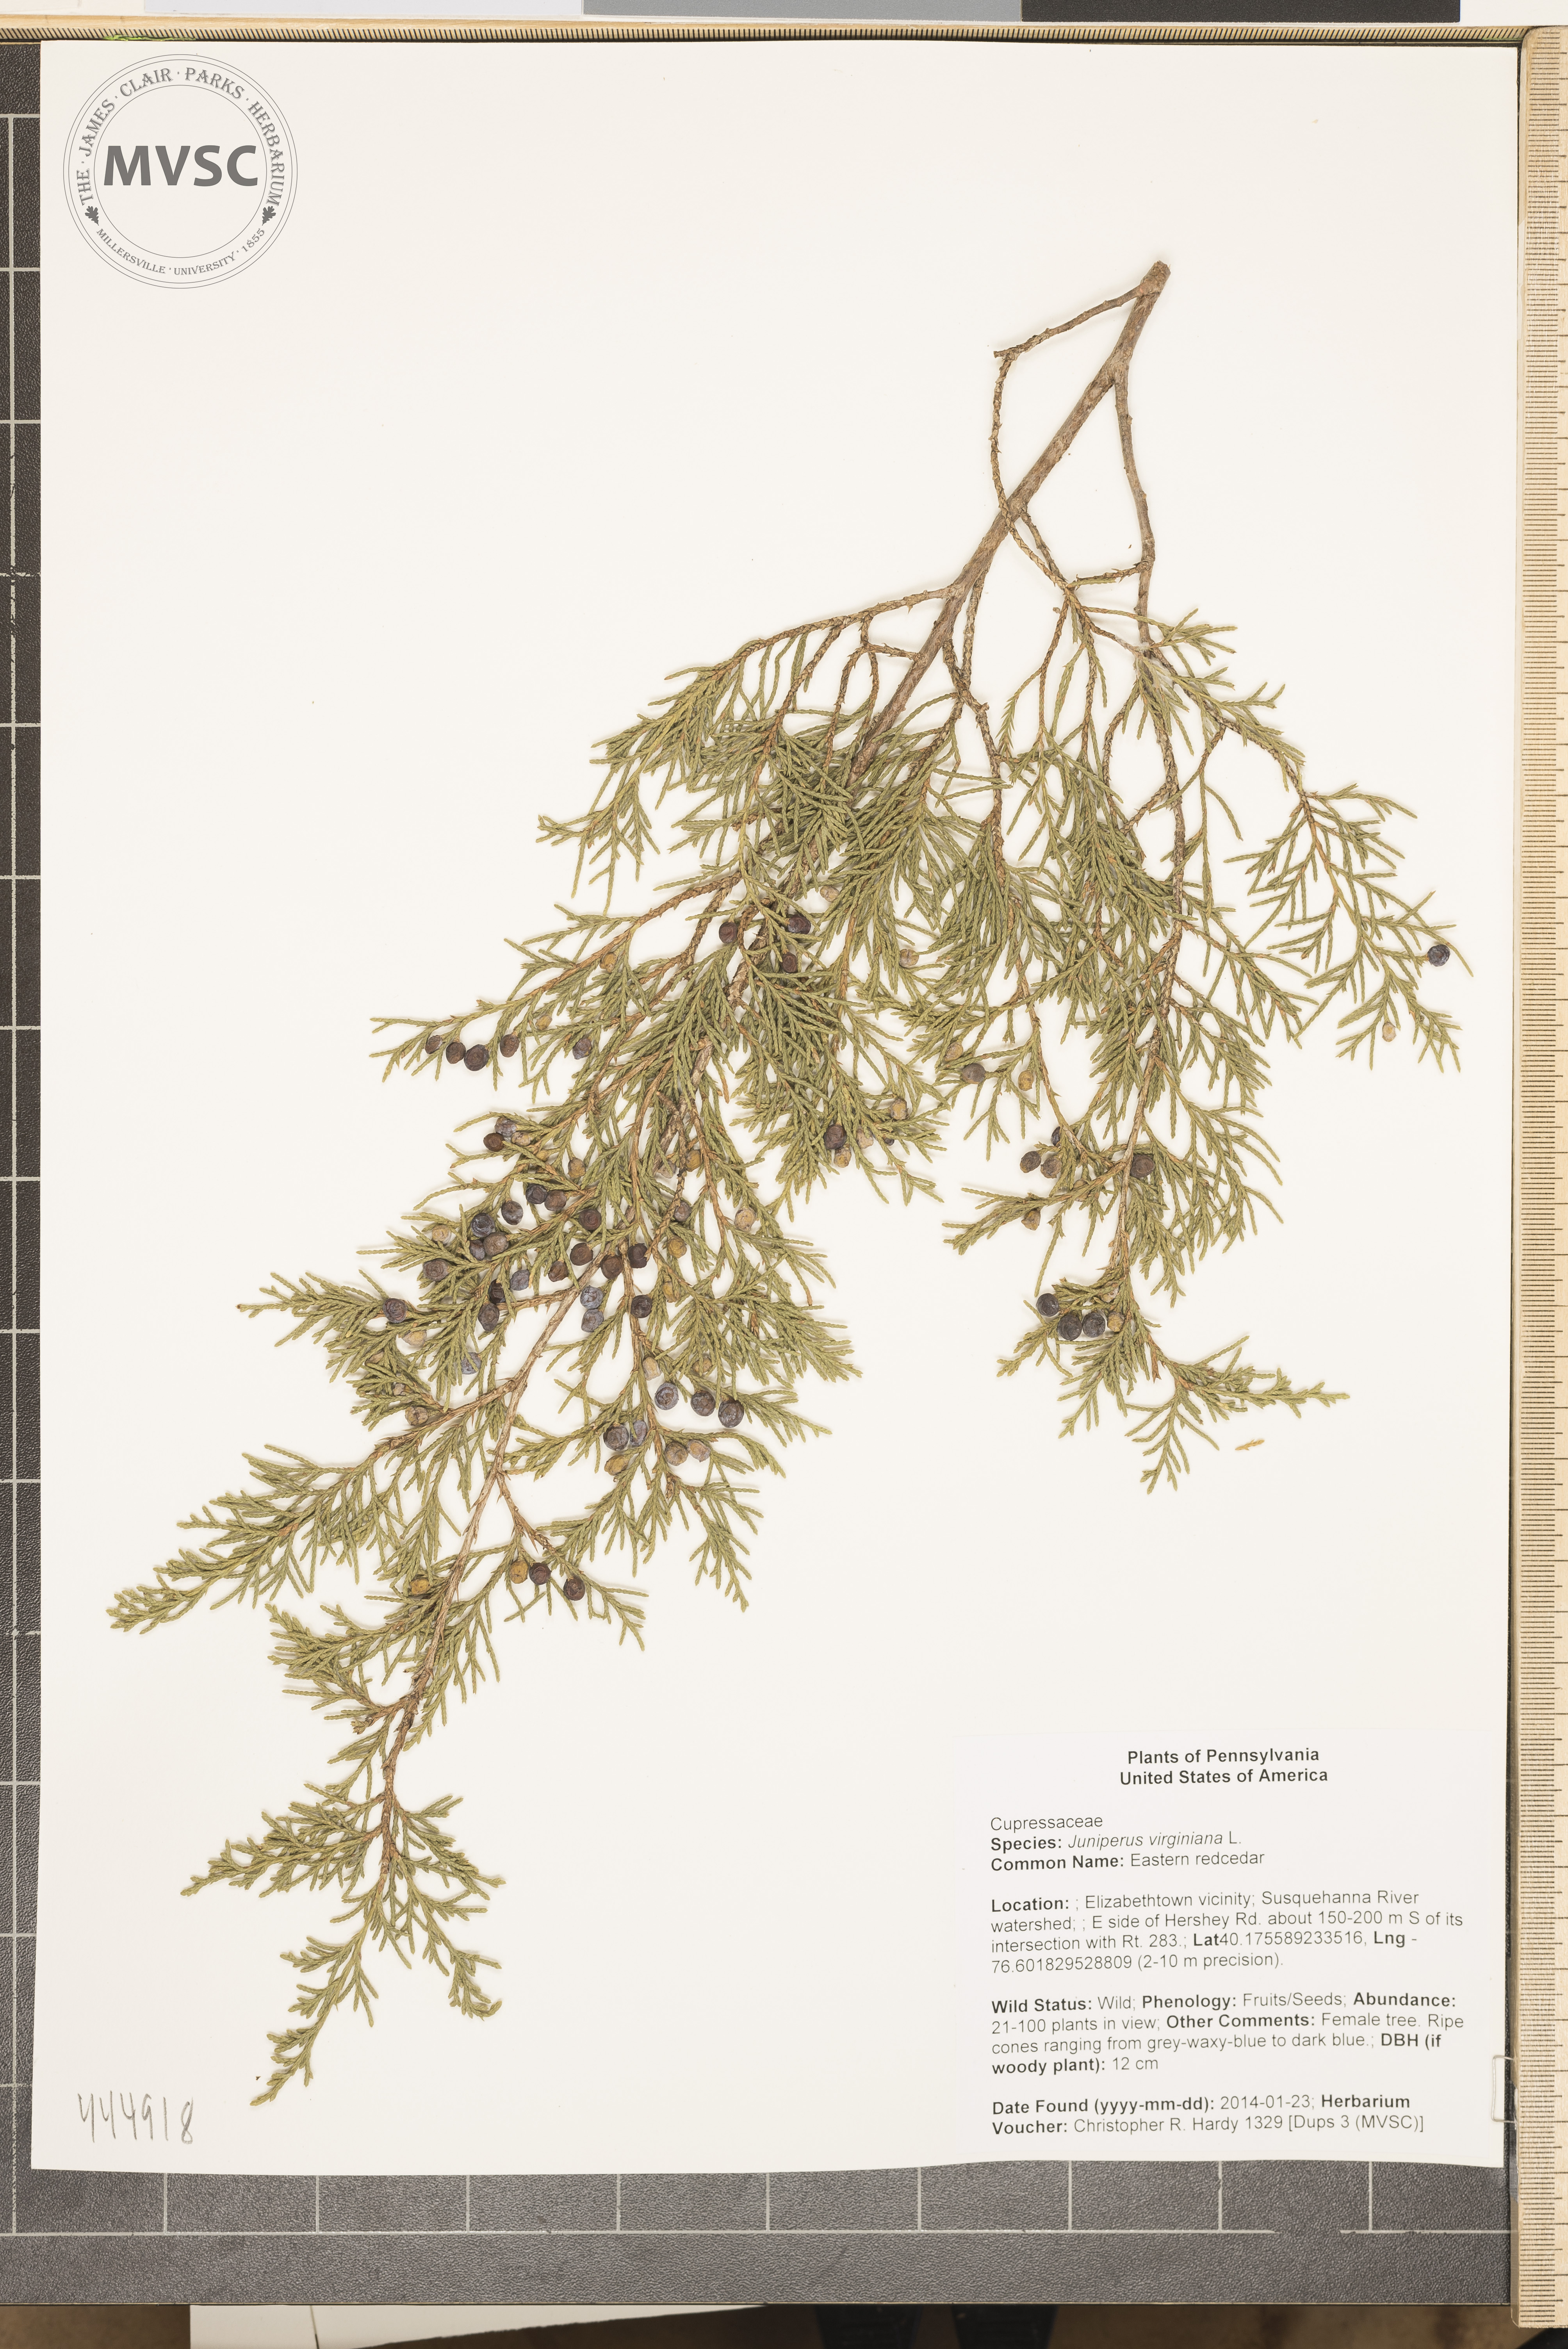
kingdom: Plantae
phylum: Tracheophyta
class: Pinopsida
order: Pinales
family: Cupressaceae
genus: Juniperus
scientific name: Juniperus virginiana
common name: Eastern redcedar
